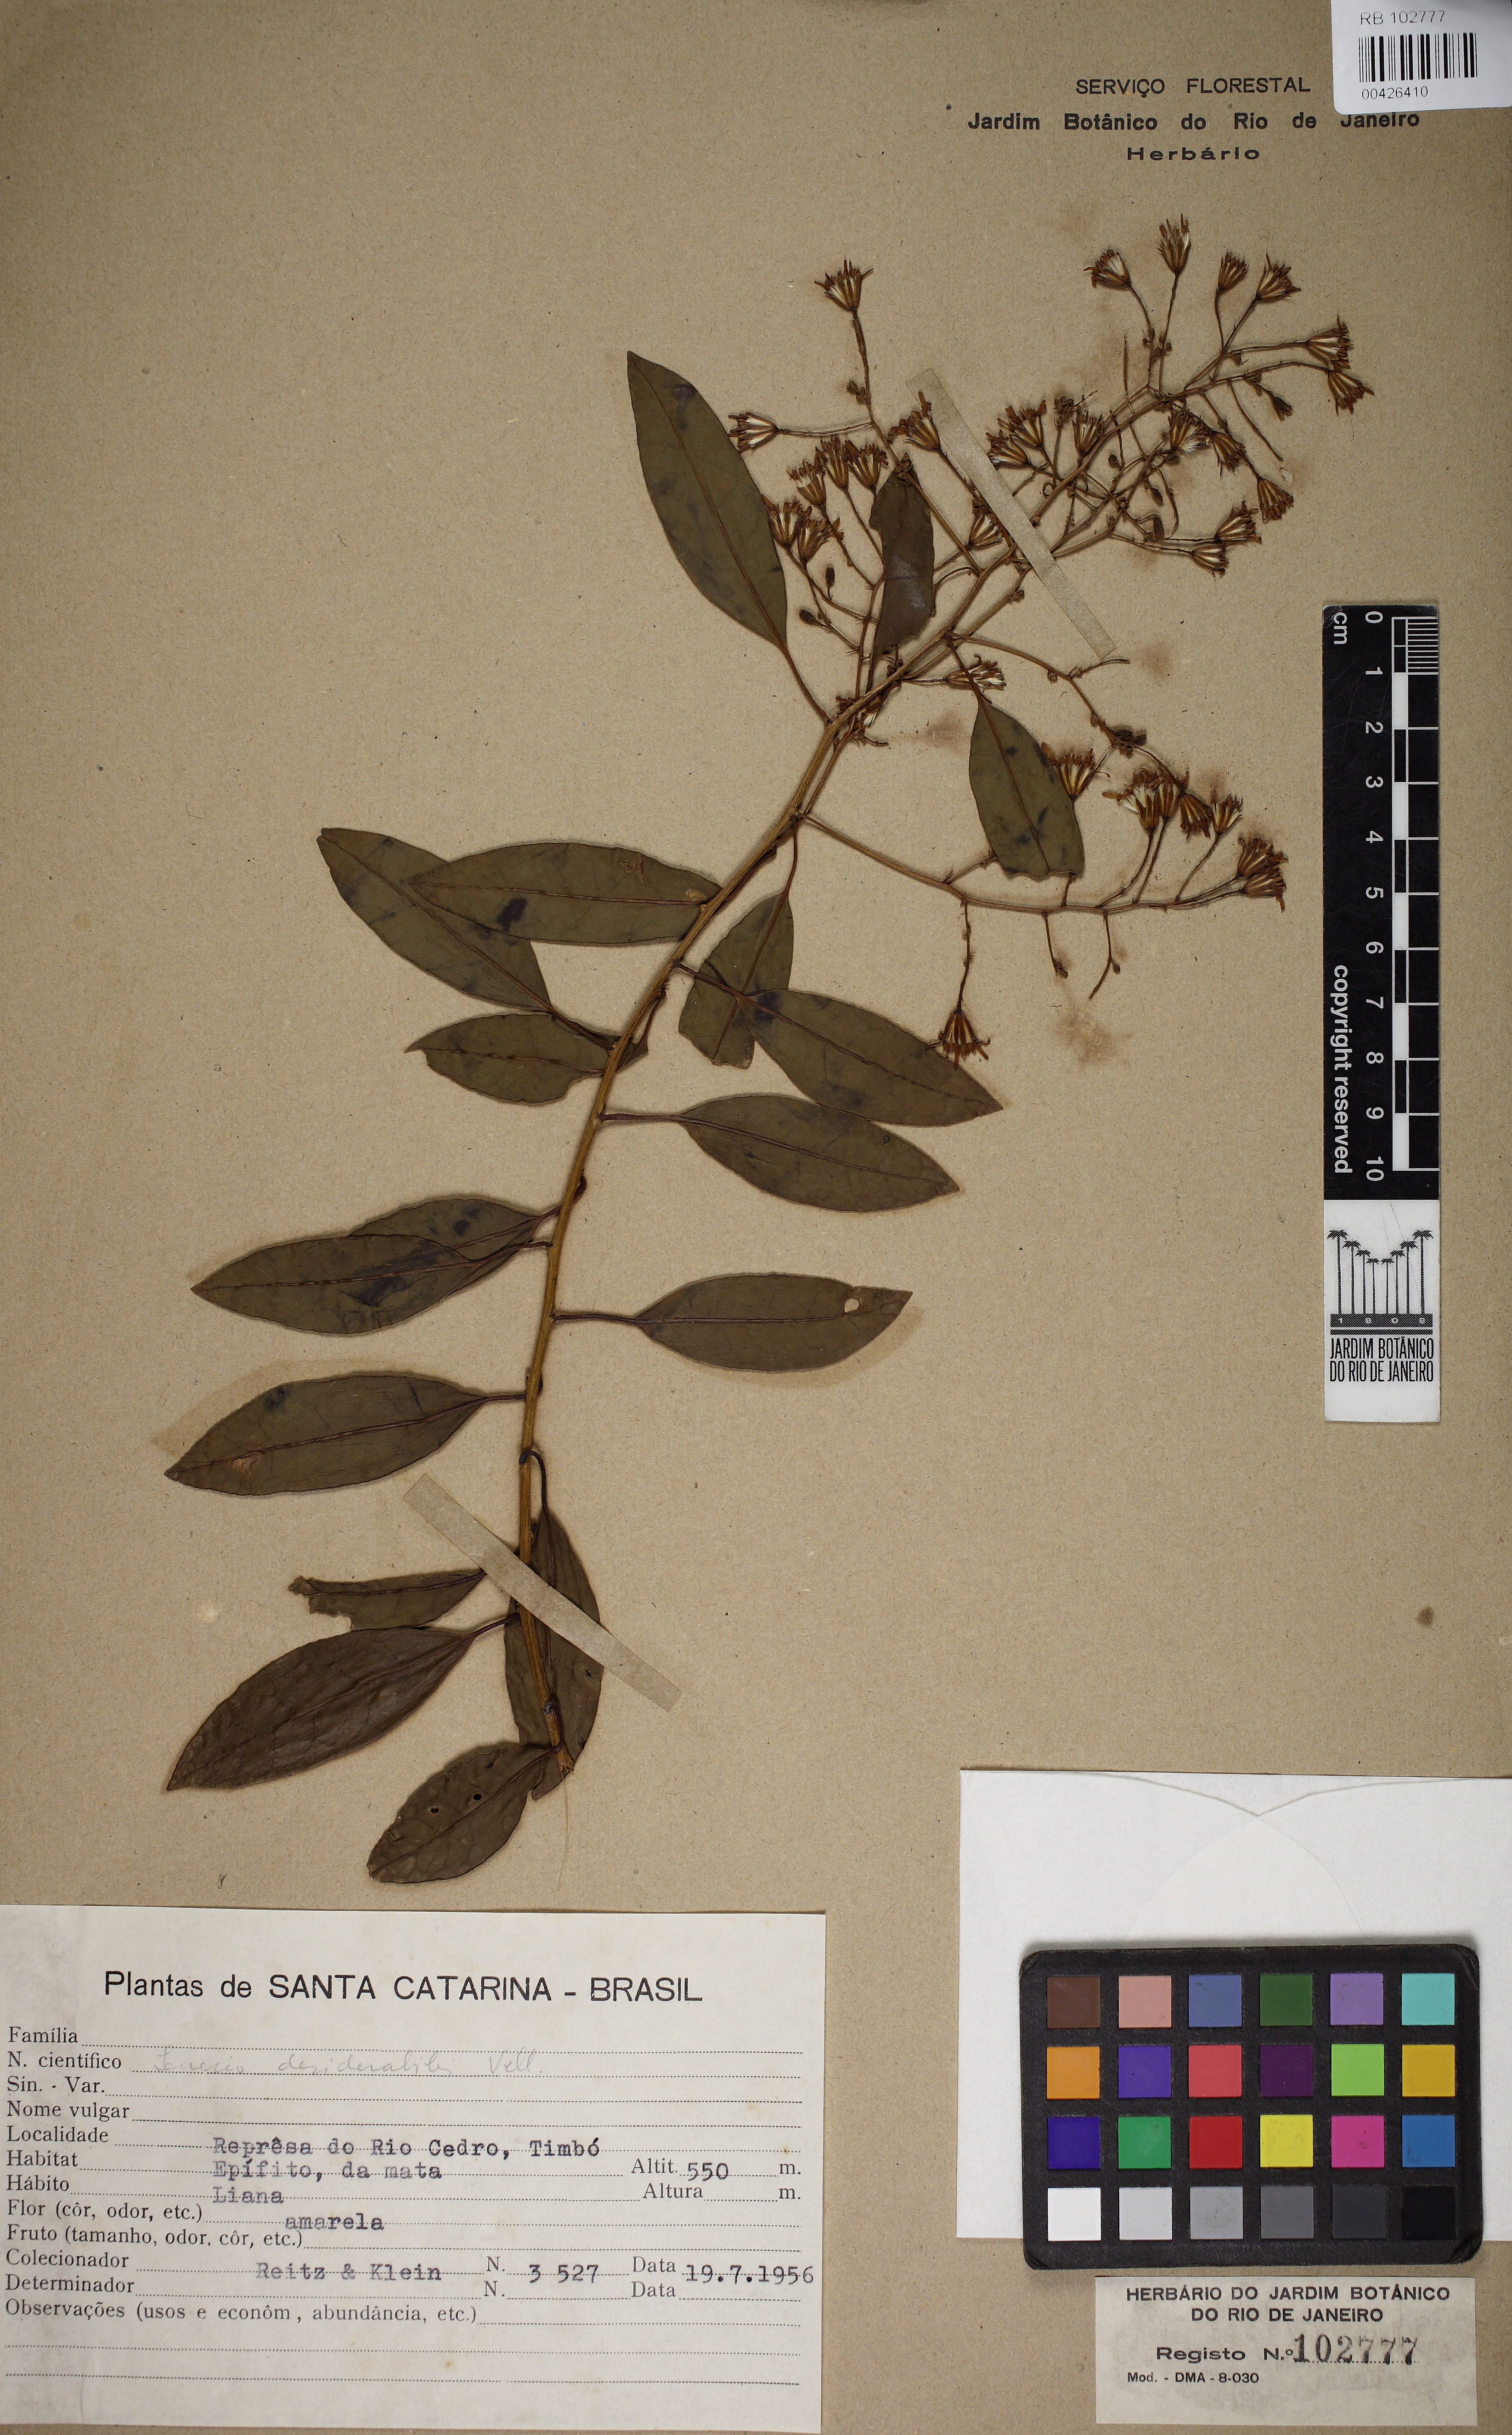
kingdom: Plantae
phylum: Tracheophyta
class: Magnoliopsida
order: Asterales
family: Asteraceae
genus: Pentacalia
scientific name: Pentacalia desiderabilis
